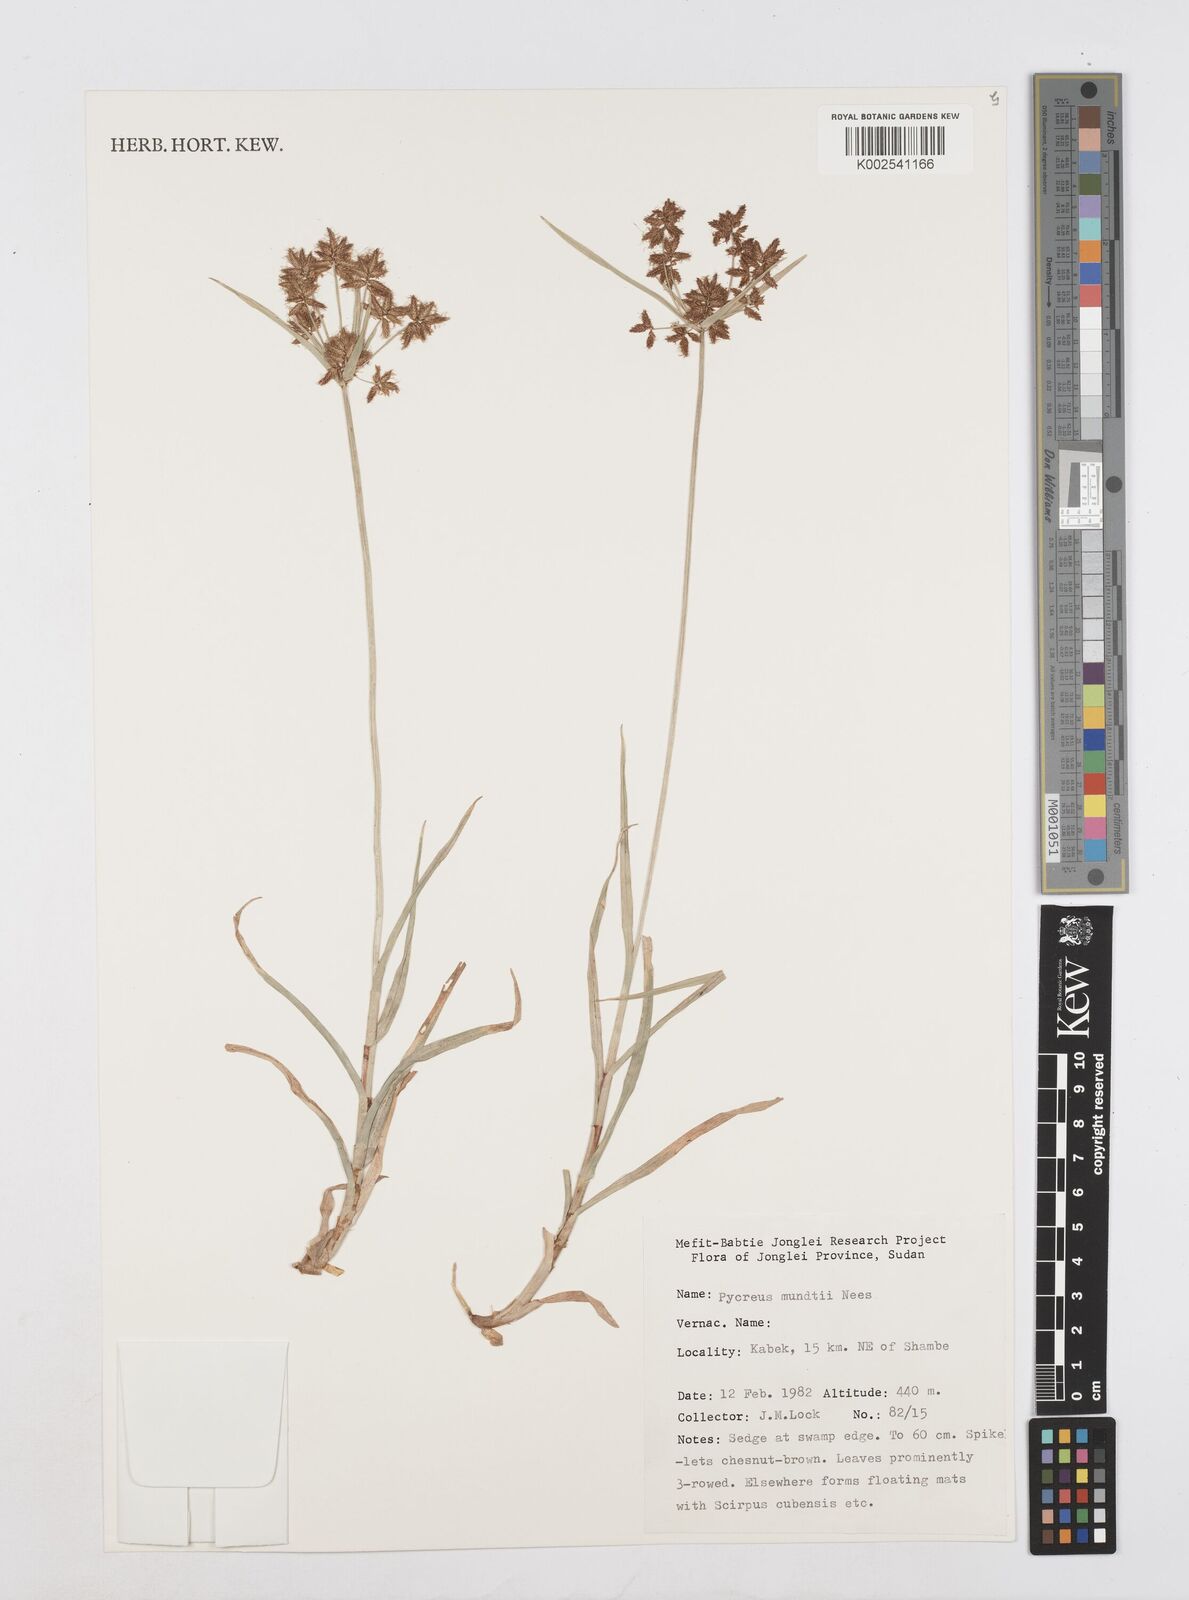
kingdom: Plantae
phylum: Tracheophyta
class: Liliopsida
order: Poales
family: Cyperaceae
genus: Cyperus
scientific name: Cyperus mundii
